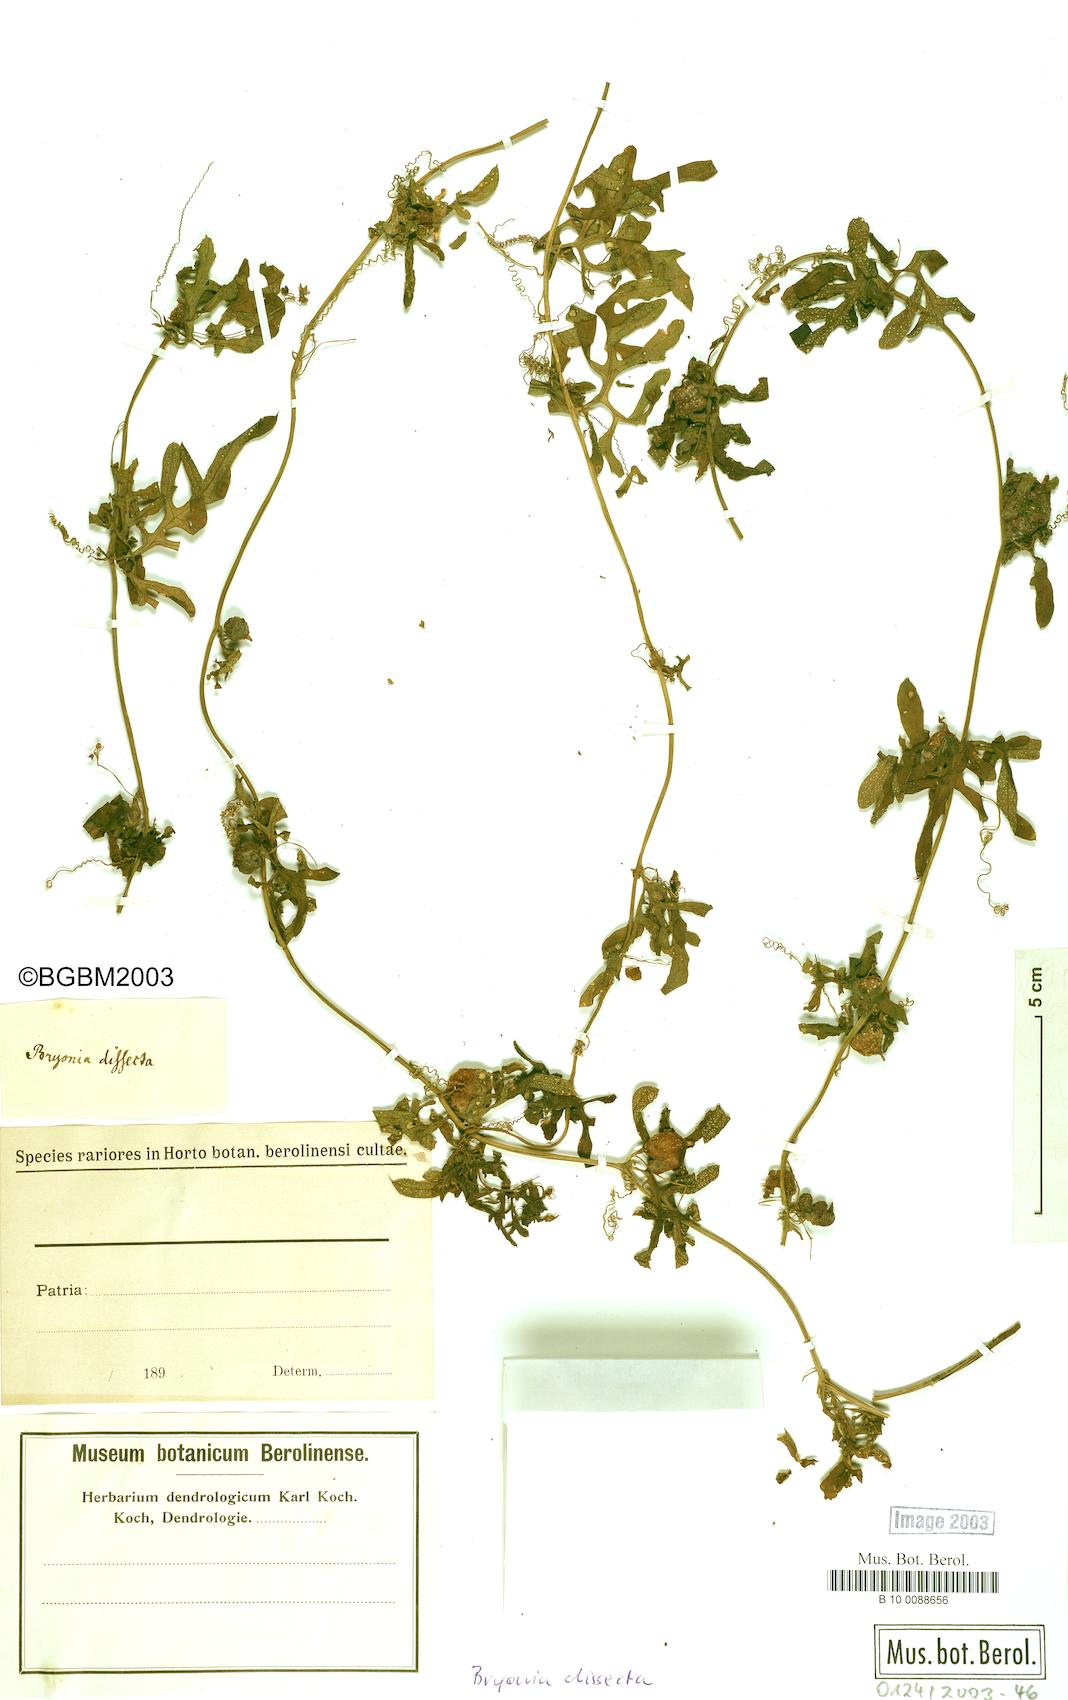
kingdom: Plantae
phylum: Tracheophyta
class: Magnoliopsida
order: Cucurbitales
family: Cucurbitaceae
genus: Kedrostis
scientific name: Kedrostis africana
